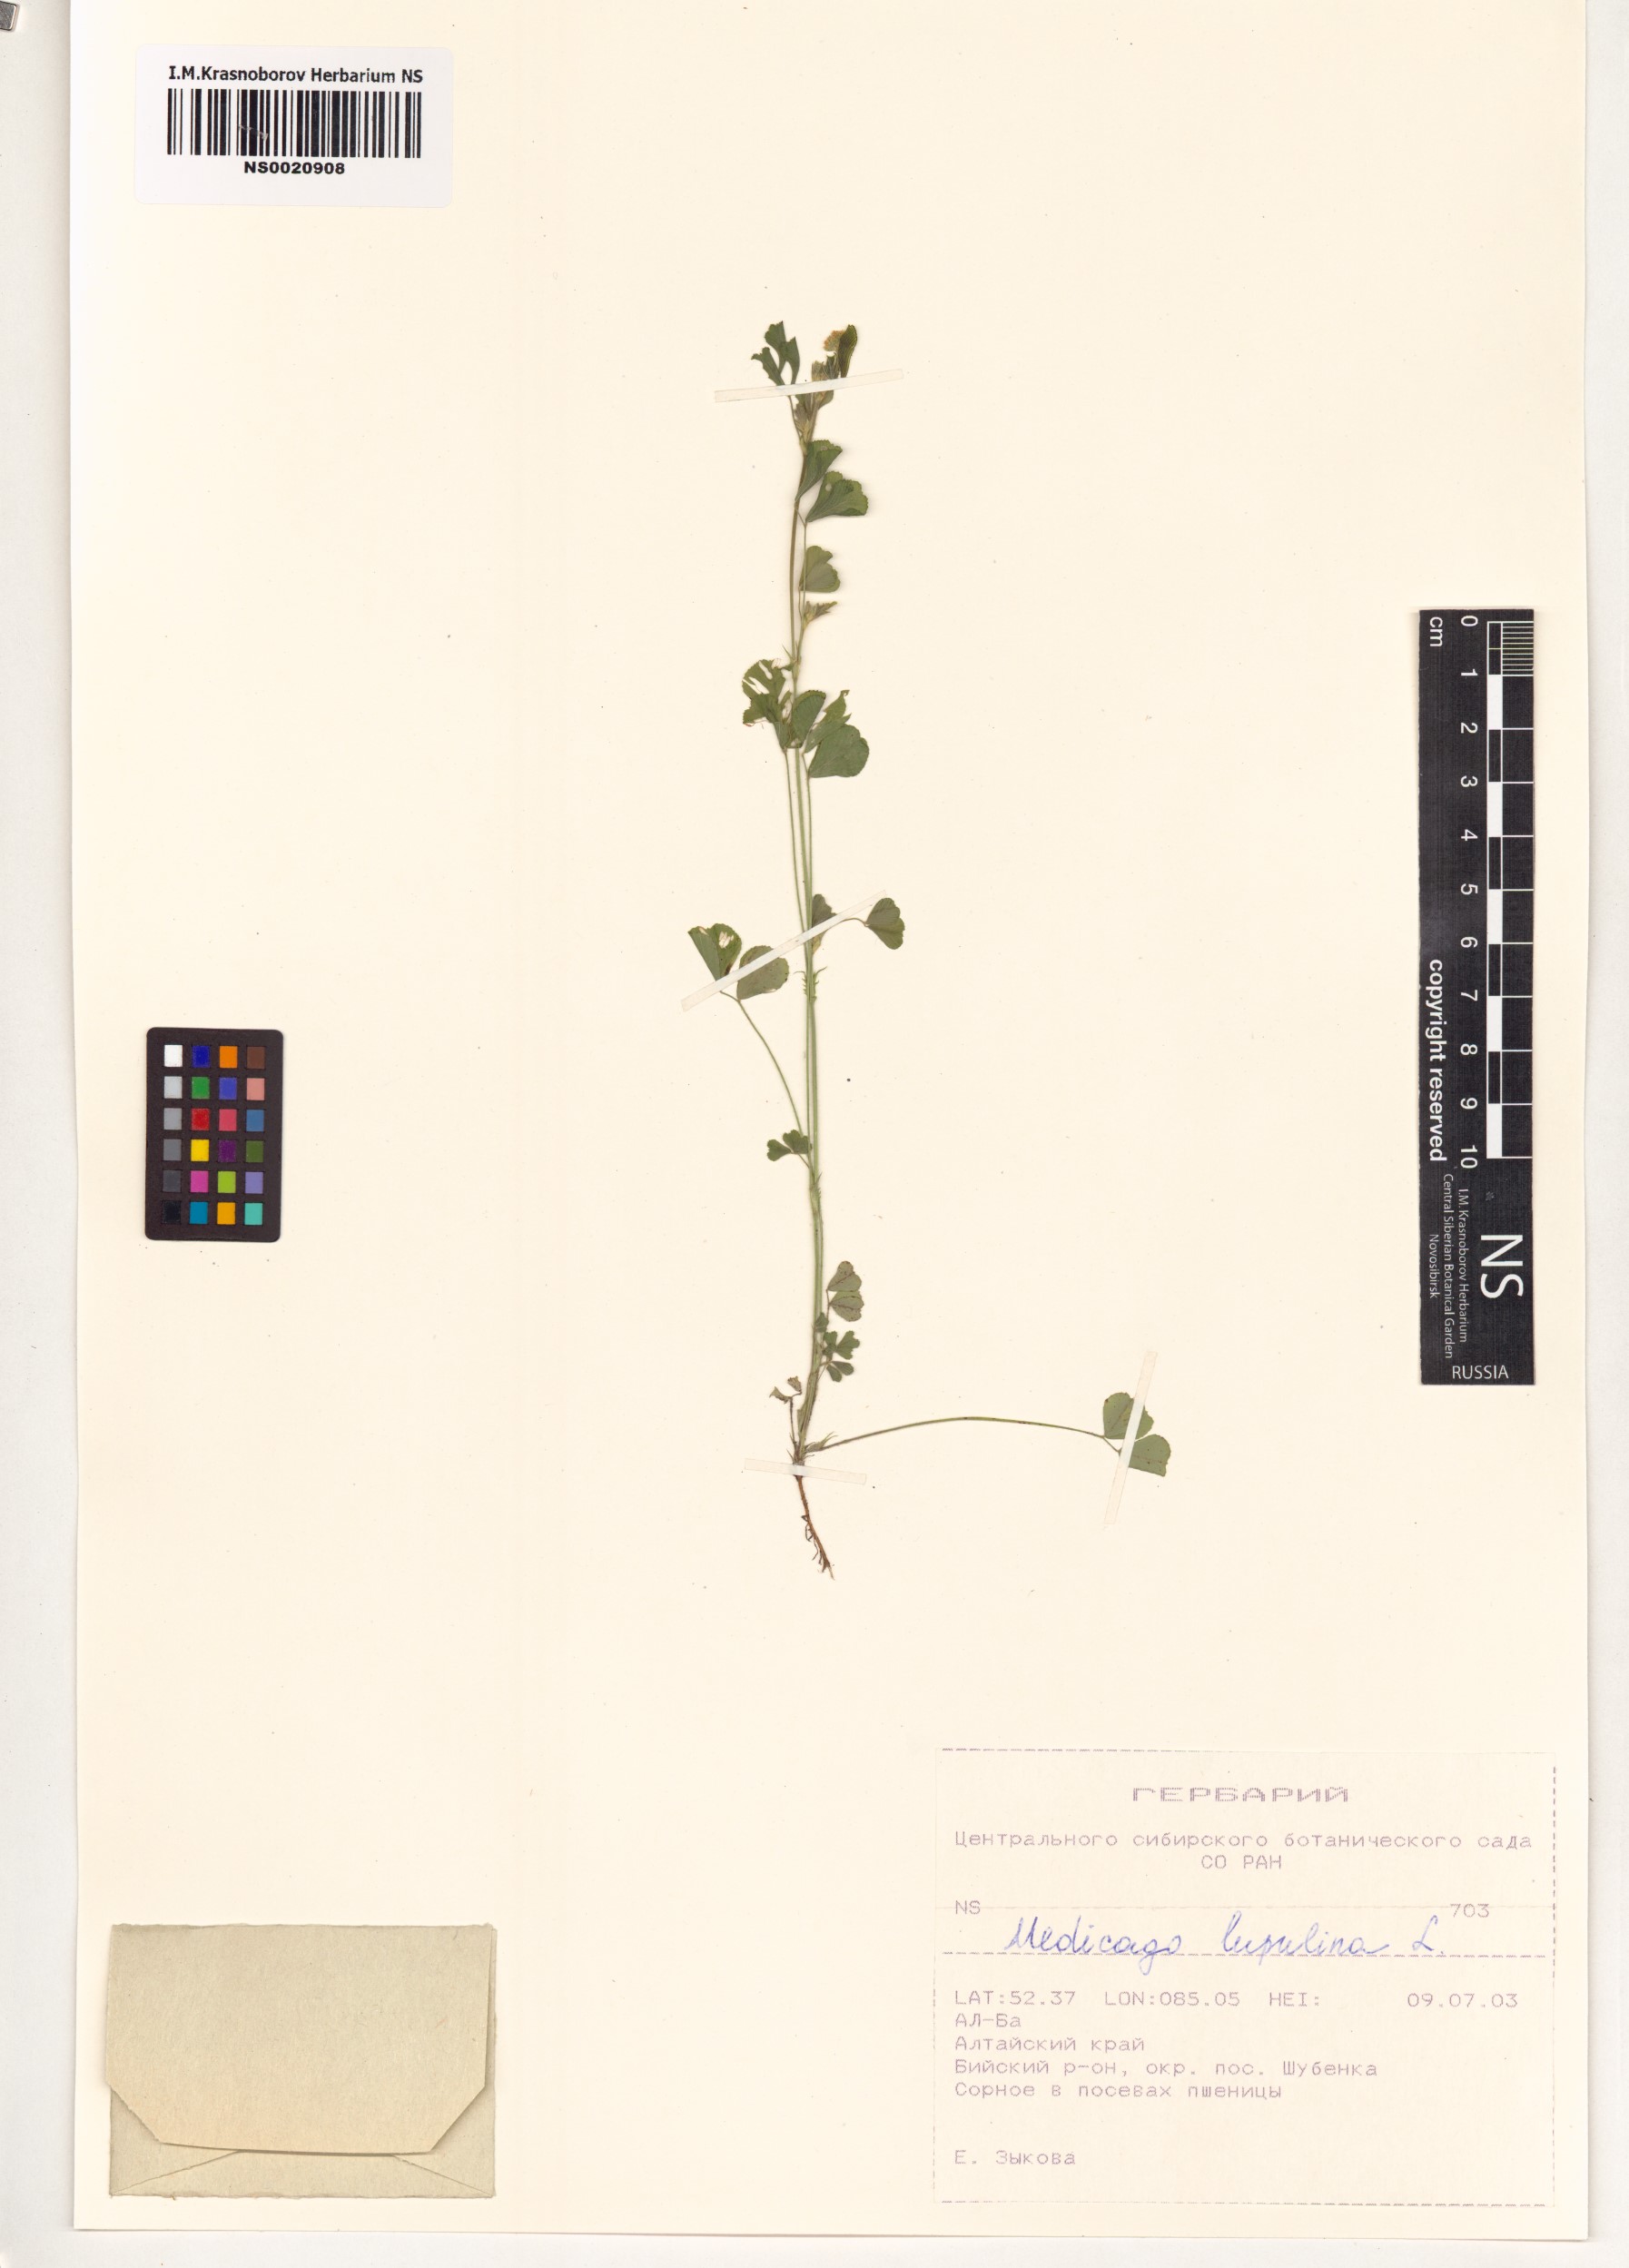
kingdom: Plantae
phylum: Tracheophyta
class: Magnoliopsida
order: Fabales
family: Fabaceae
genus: Medicago
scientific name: Medicago lupulina
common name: Black medick
